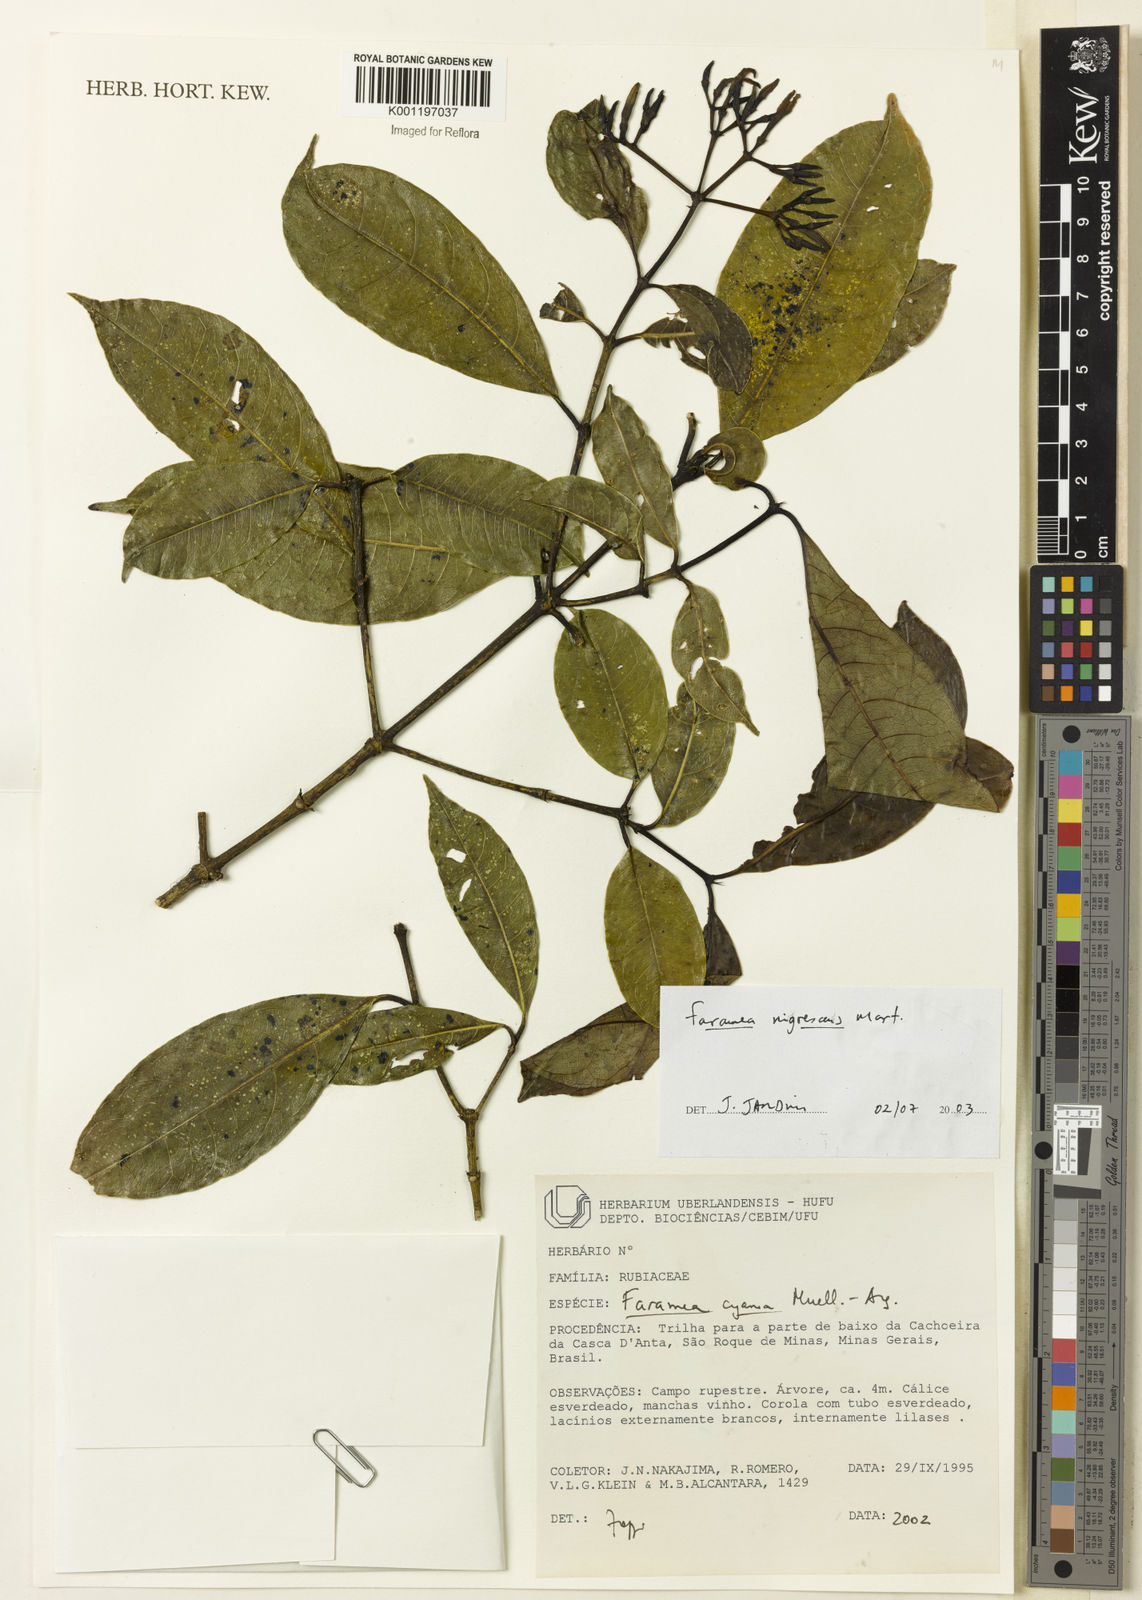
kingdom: Plantae
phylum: Tracheophyta
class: Magnoliopsida
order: Gentianales
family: Rubiaceae
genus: Faramea
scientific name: Faramea nigrescens
